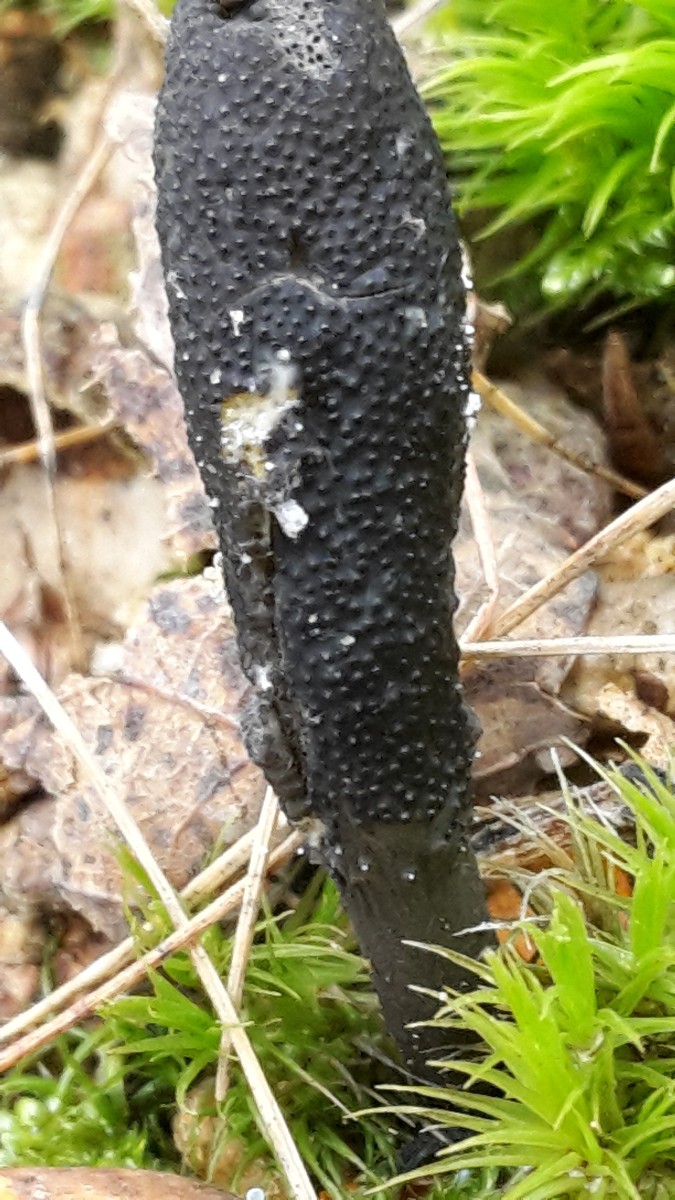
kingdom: Fungi
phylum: Ascomycota
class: Sordariomycetes
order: Hypocreales
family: Ophiocordycipitaceae
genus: Tolypocladium
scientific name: Tolypocladium ophioglossoides
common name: slank snyltekølle
